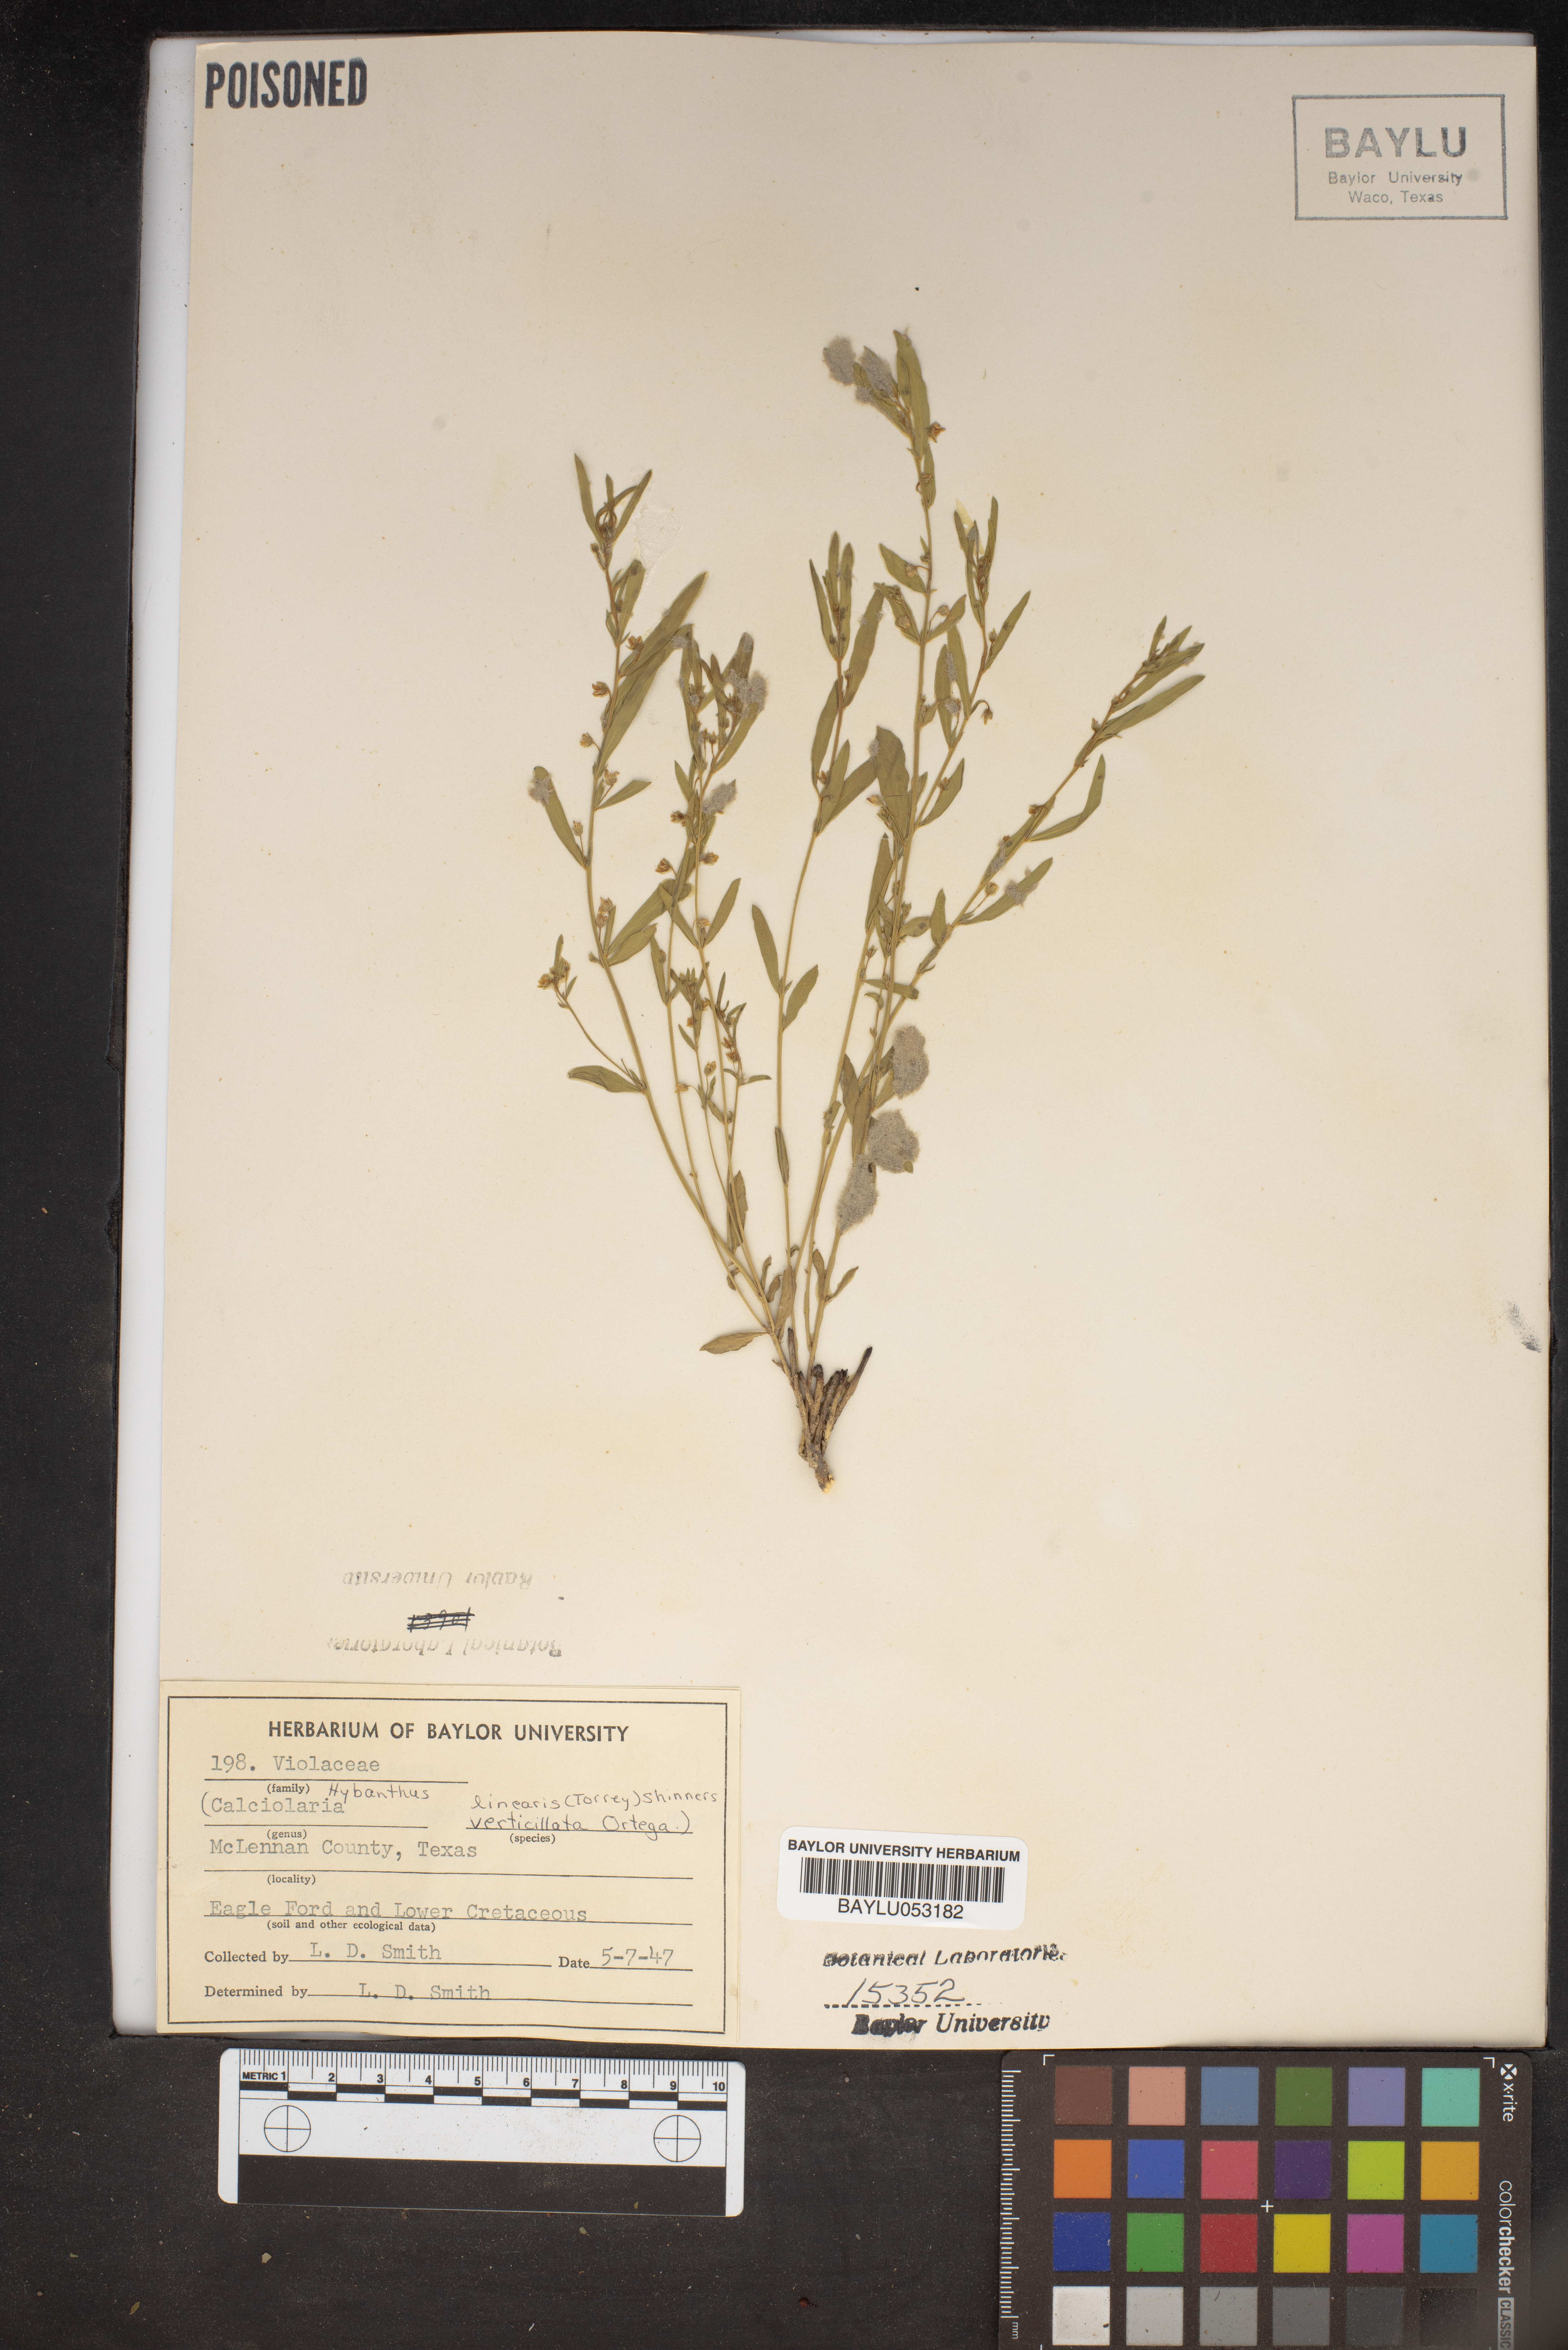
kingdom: Plantae
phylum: Tracheophyta
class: Magnoliopsida
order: Malpighiales
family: Violaceae
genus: Pombalia
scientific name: Pombalia verticillata
